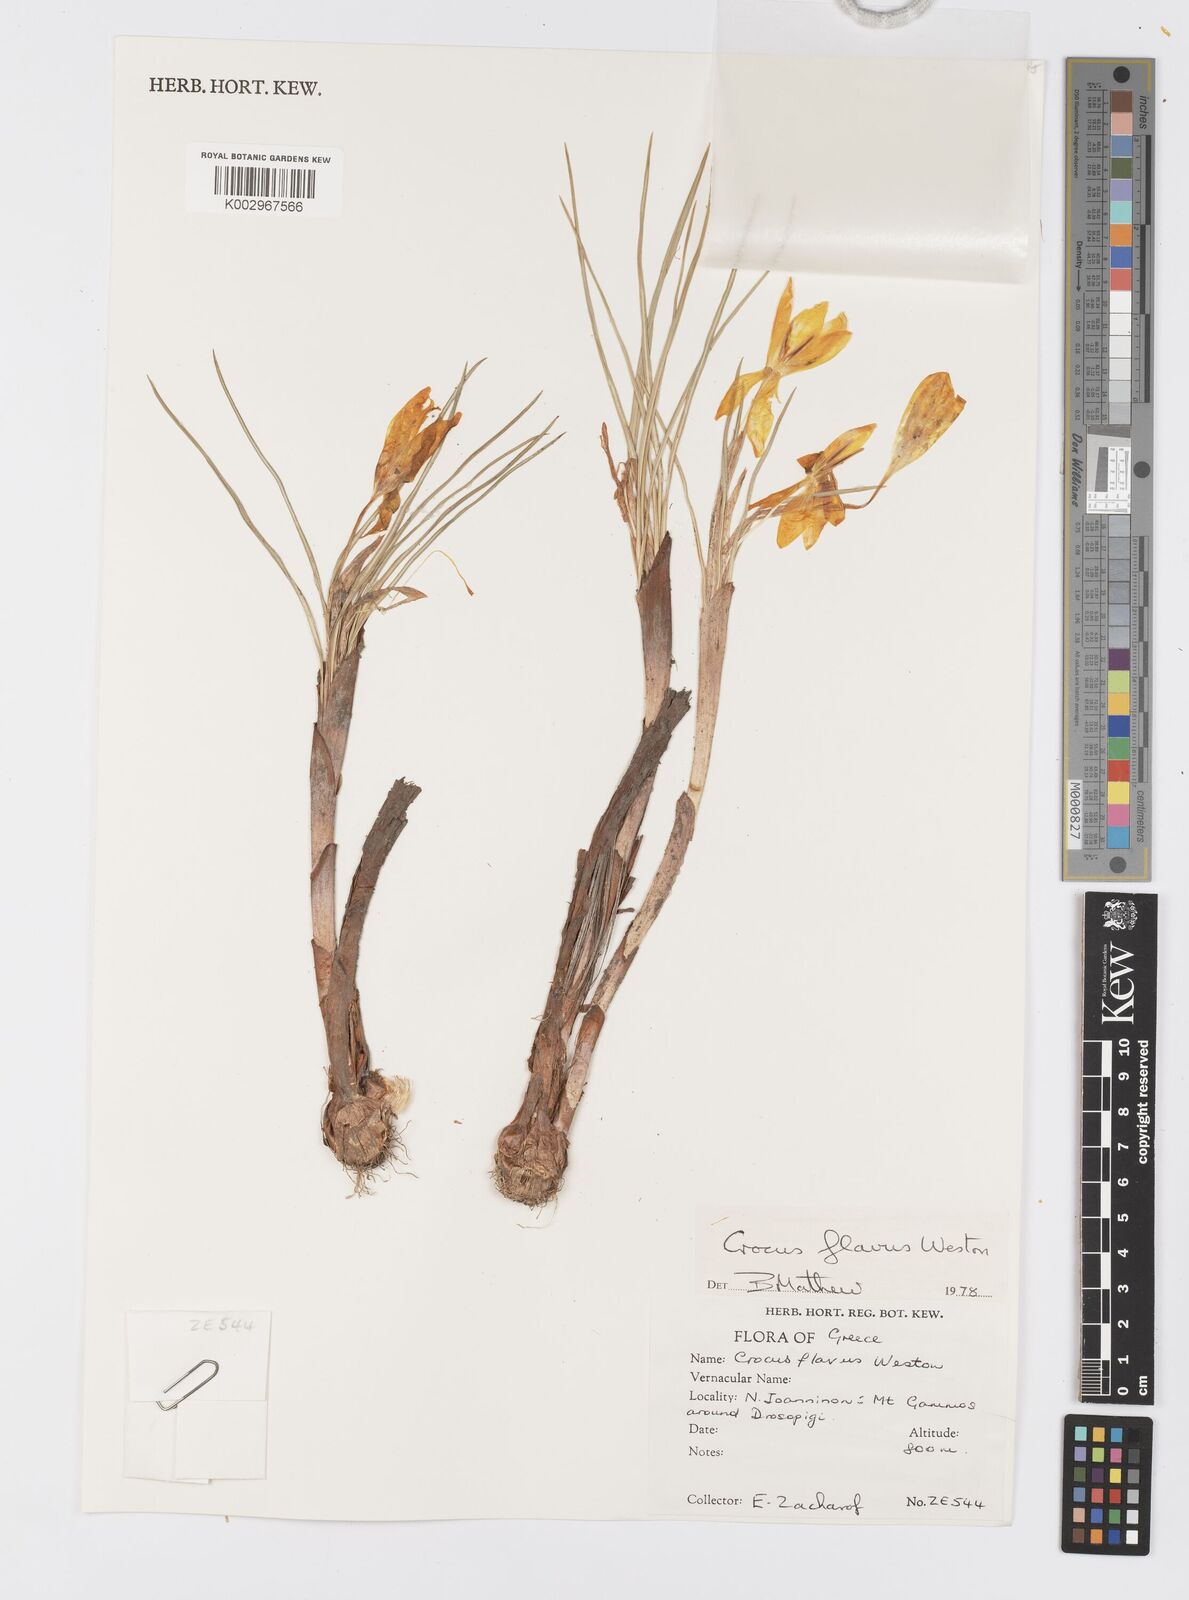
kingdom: Plantae
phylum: Tracheophyta
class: Liliopsida
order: Asparagales
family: Iridaceae
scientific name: Iridaceae
